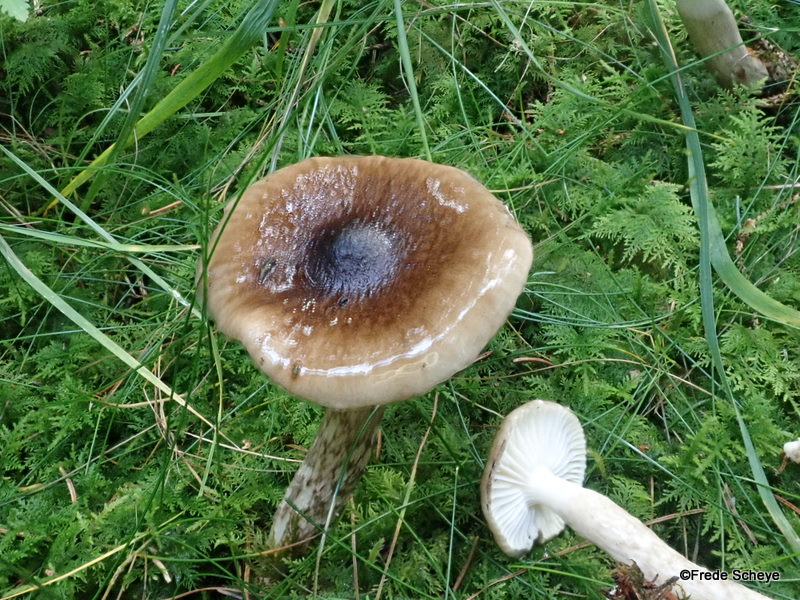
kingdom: Fungi
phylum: Basidiomycota
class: Agaricomycetes
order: Agaricales
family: Hygrophoraceae
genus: Hygrophorus
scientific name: Hygrophorus olivaceoalbus
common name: hvidbrun sneglehat
